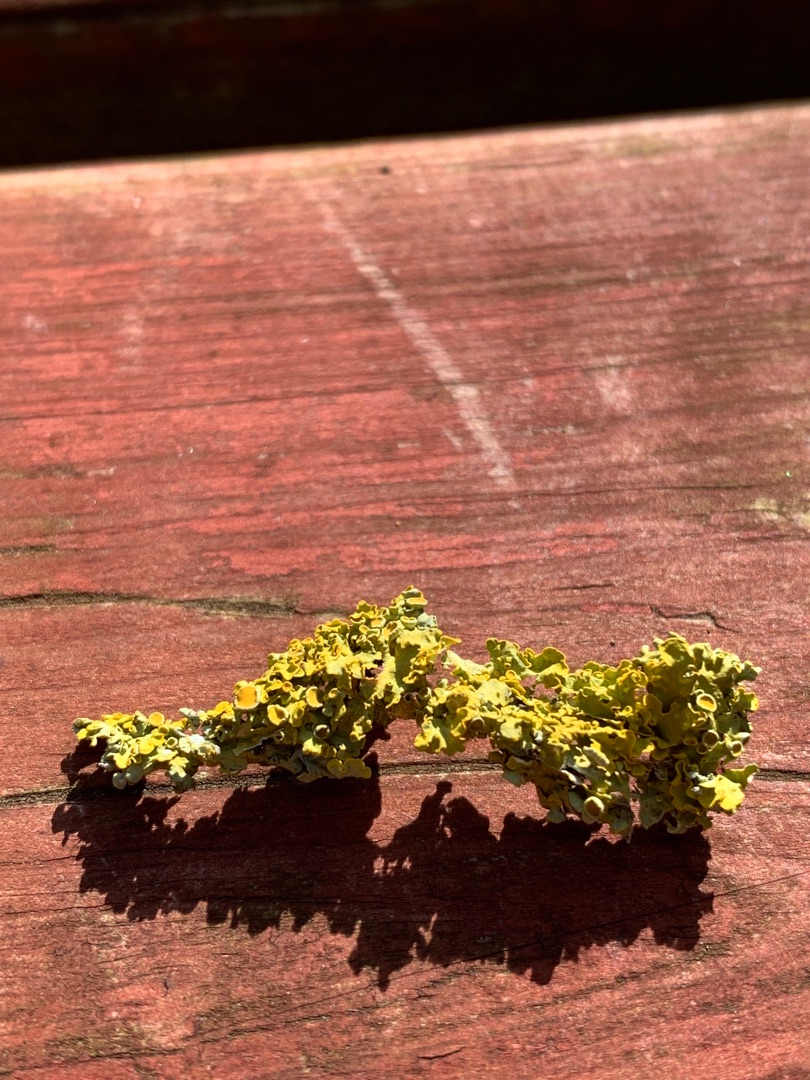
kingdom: Fungi
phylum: Ascomycota
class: Lecanoromycetes
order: Teloschistales
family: Teloschistaceae
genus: Xanthoria
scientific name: Xanthoria parietina
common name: Almindelig væggelav
